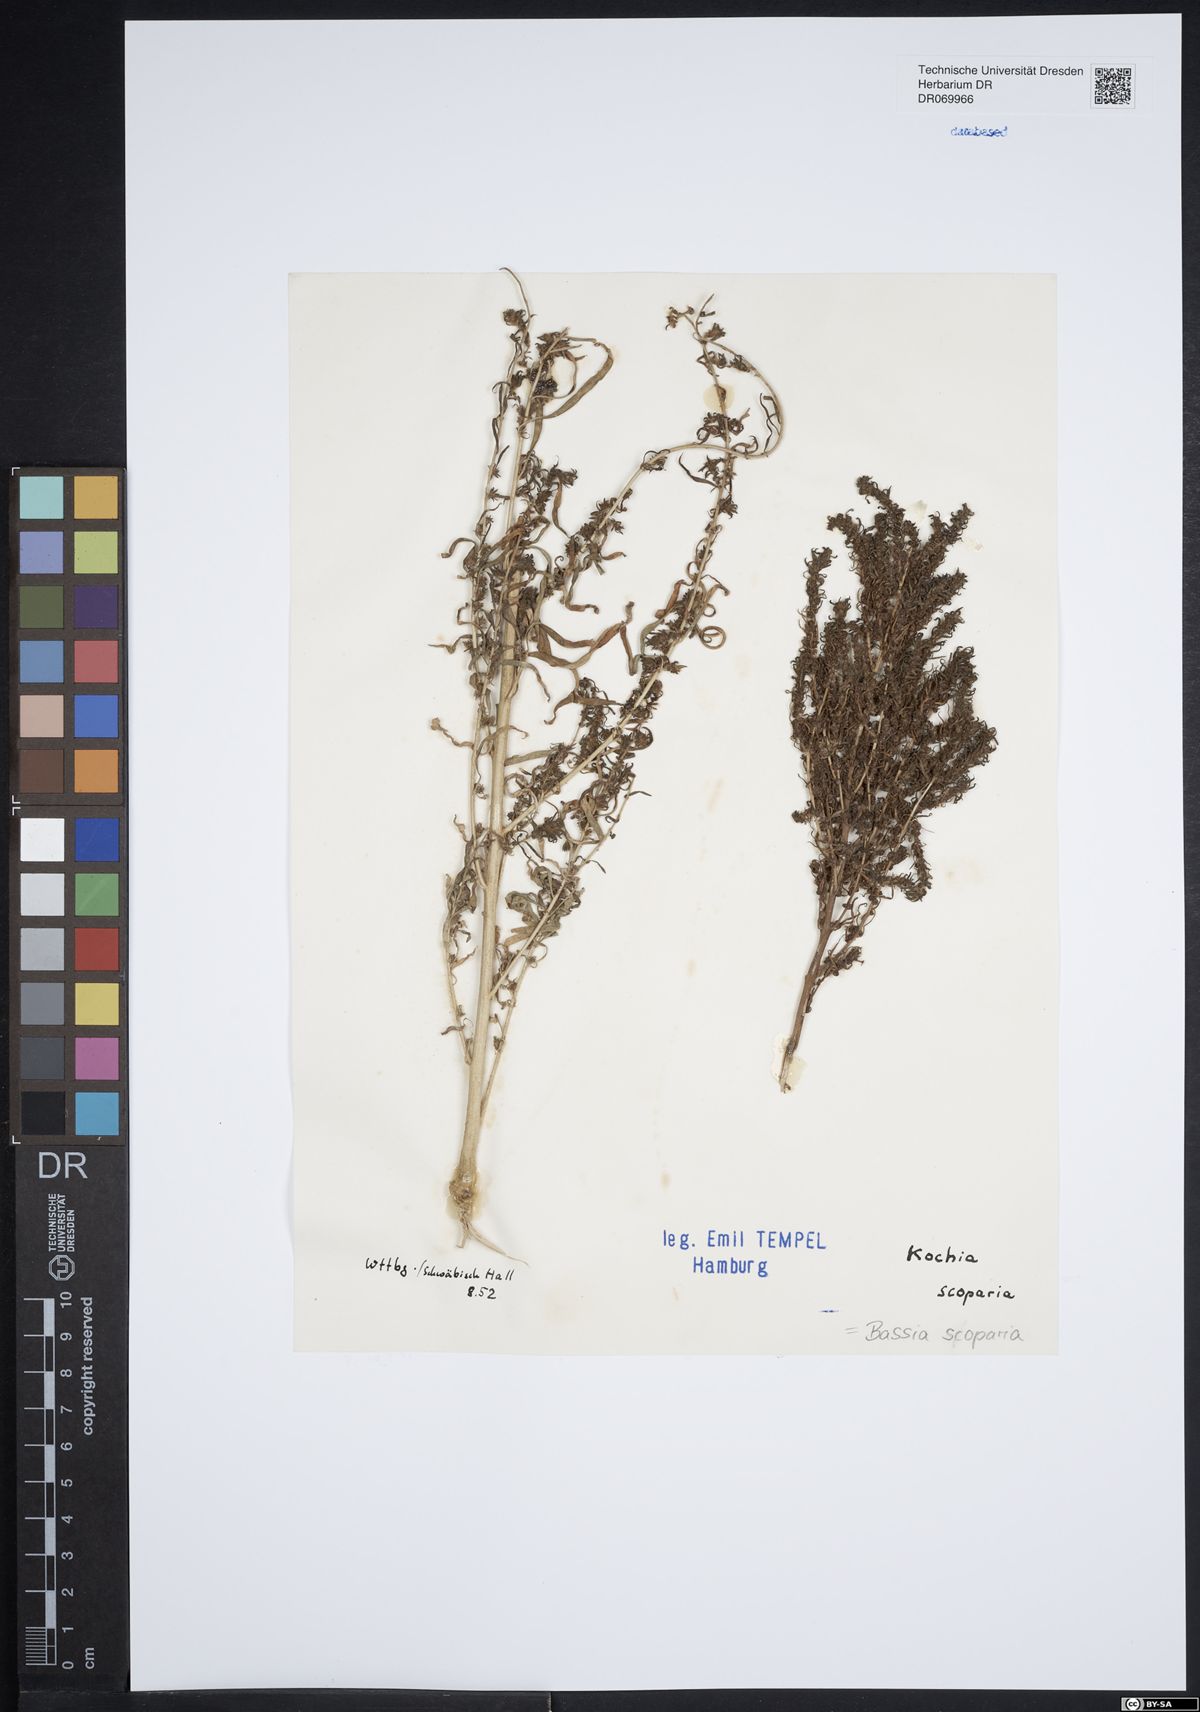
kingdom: Plantae
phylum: Tracheophyta
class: Magnoliopsida
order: Caryophyllales
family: Amaranthaceae
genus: Bassia
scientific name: Bassia scoparia
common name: Belvedere
